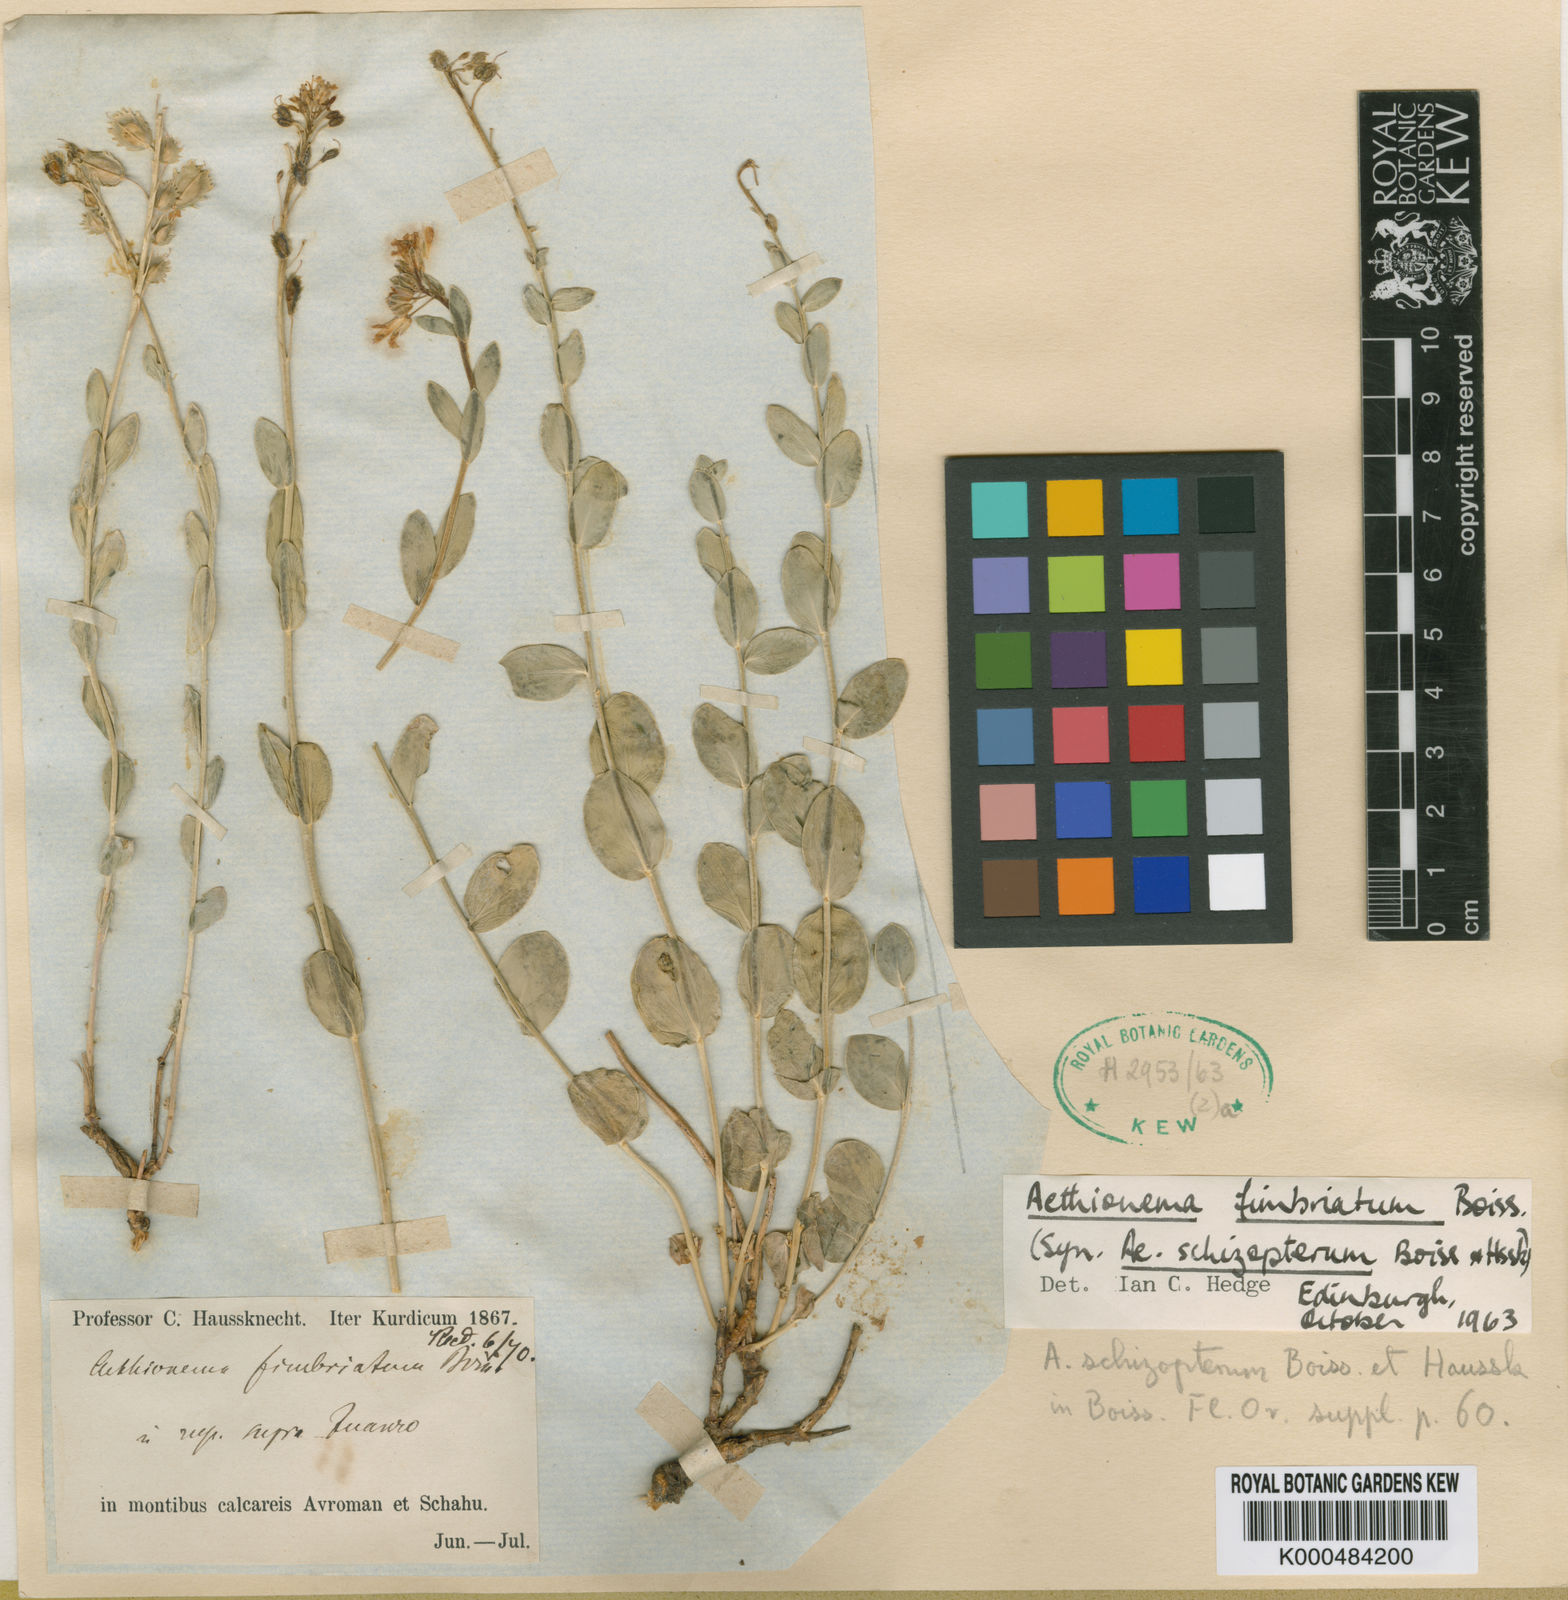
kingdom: Plantae
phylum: Tracheophyta
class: Magnoliopsida
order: Brassicales
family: Brassicaceae
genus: Aethionema
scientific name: Aethionema fimbriatum
